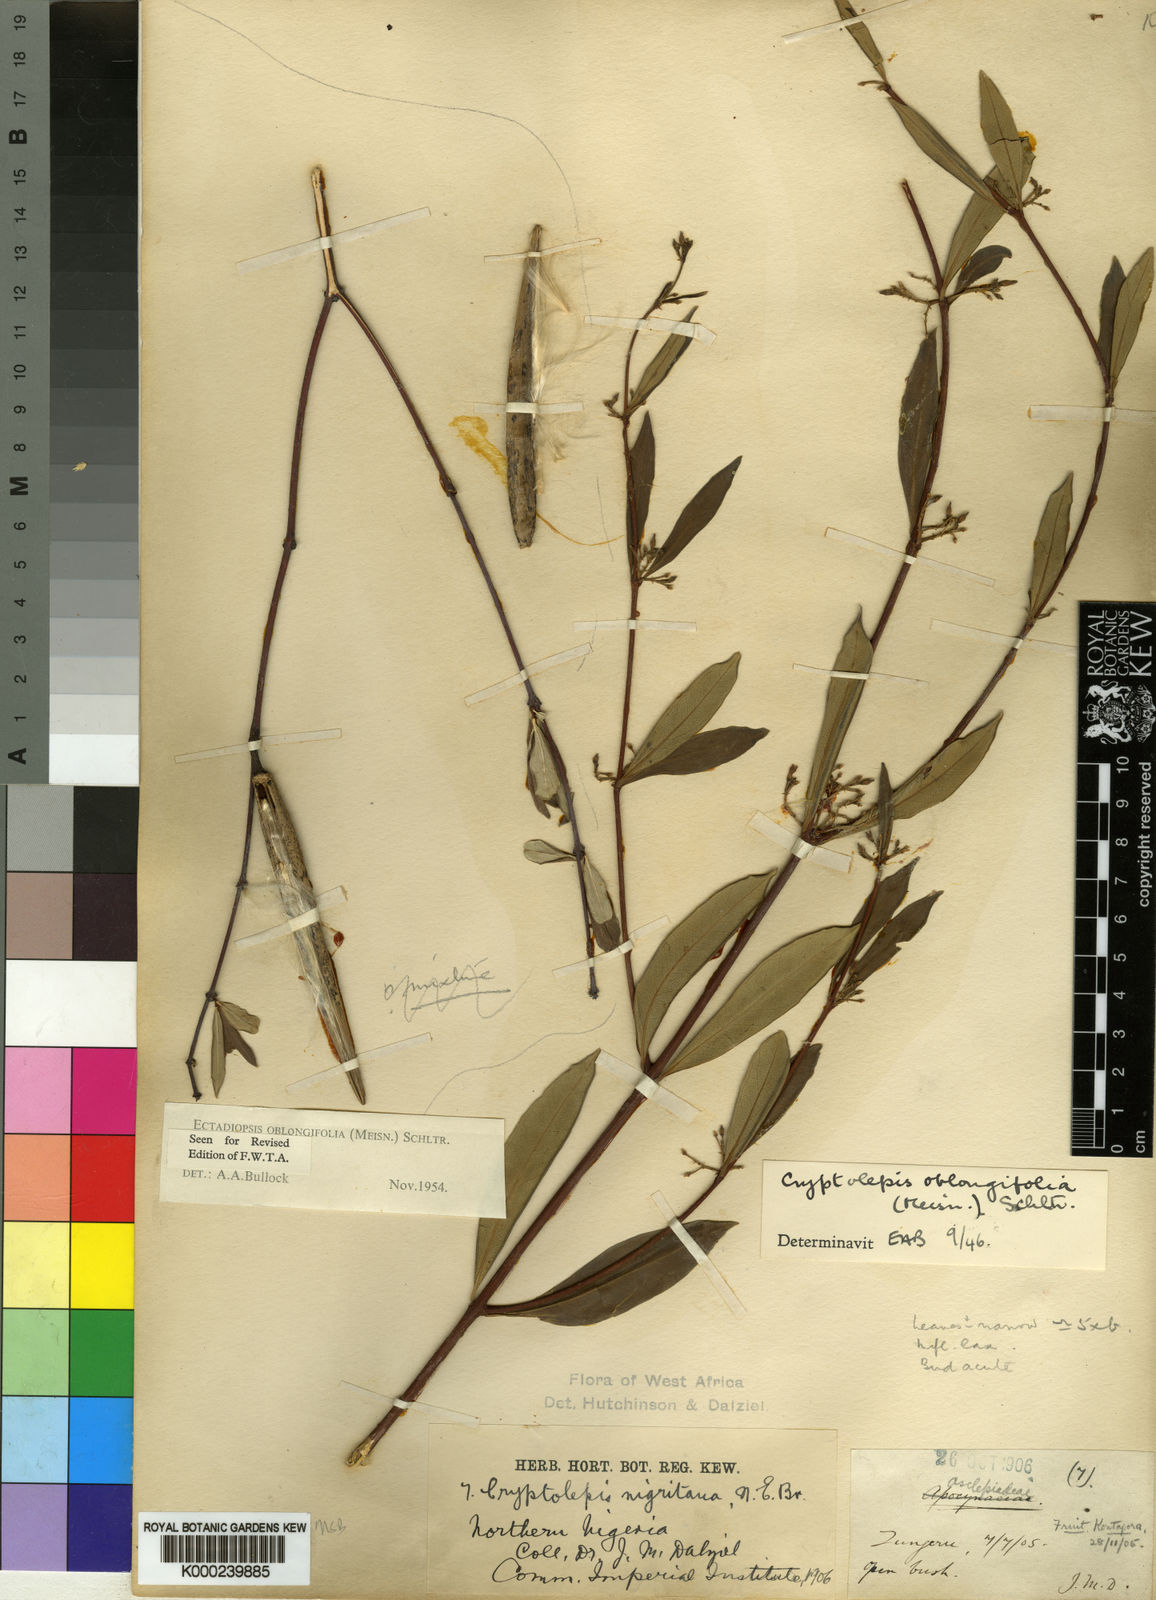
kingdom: Plantae
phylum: Tracheophyta
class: Magnoliopsida
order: Gentianales
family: Apocynaceae
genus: Cryptolepis
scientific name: Cryptolepis oblongifolia
